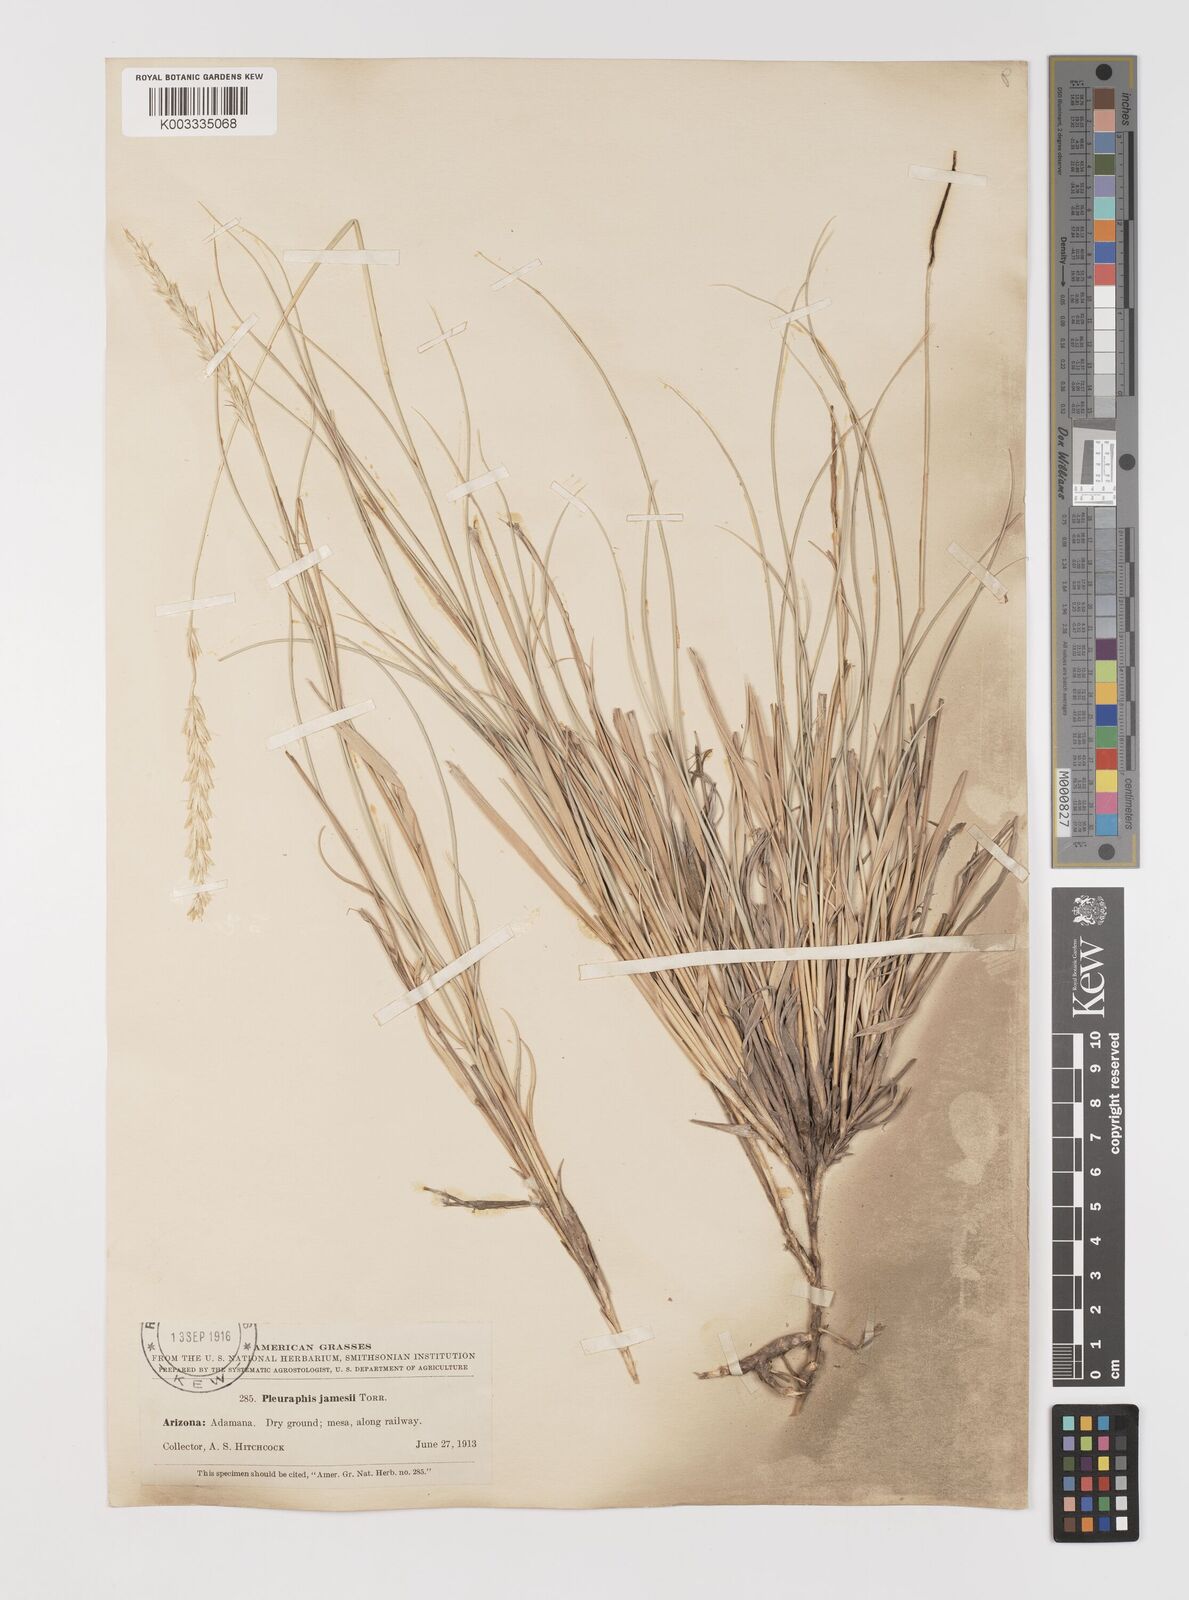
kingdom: Plantae
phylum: Tracheophyta
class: Liliopsida
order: Poales
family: Poaceae
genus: Hilaria
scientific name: Hilaria jamesii
